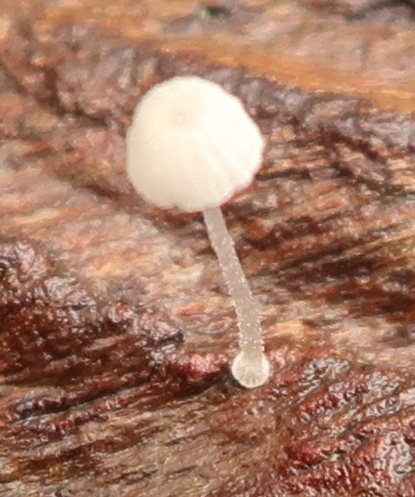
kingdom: Fungi
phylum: Basidiomycota
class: Agaricomycetes
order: Agaricales
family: Mycenaceae
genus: Mycena
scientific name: Mycena
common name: huesvamp
